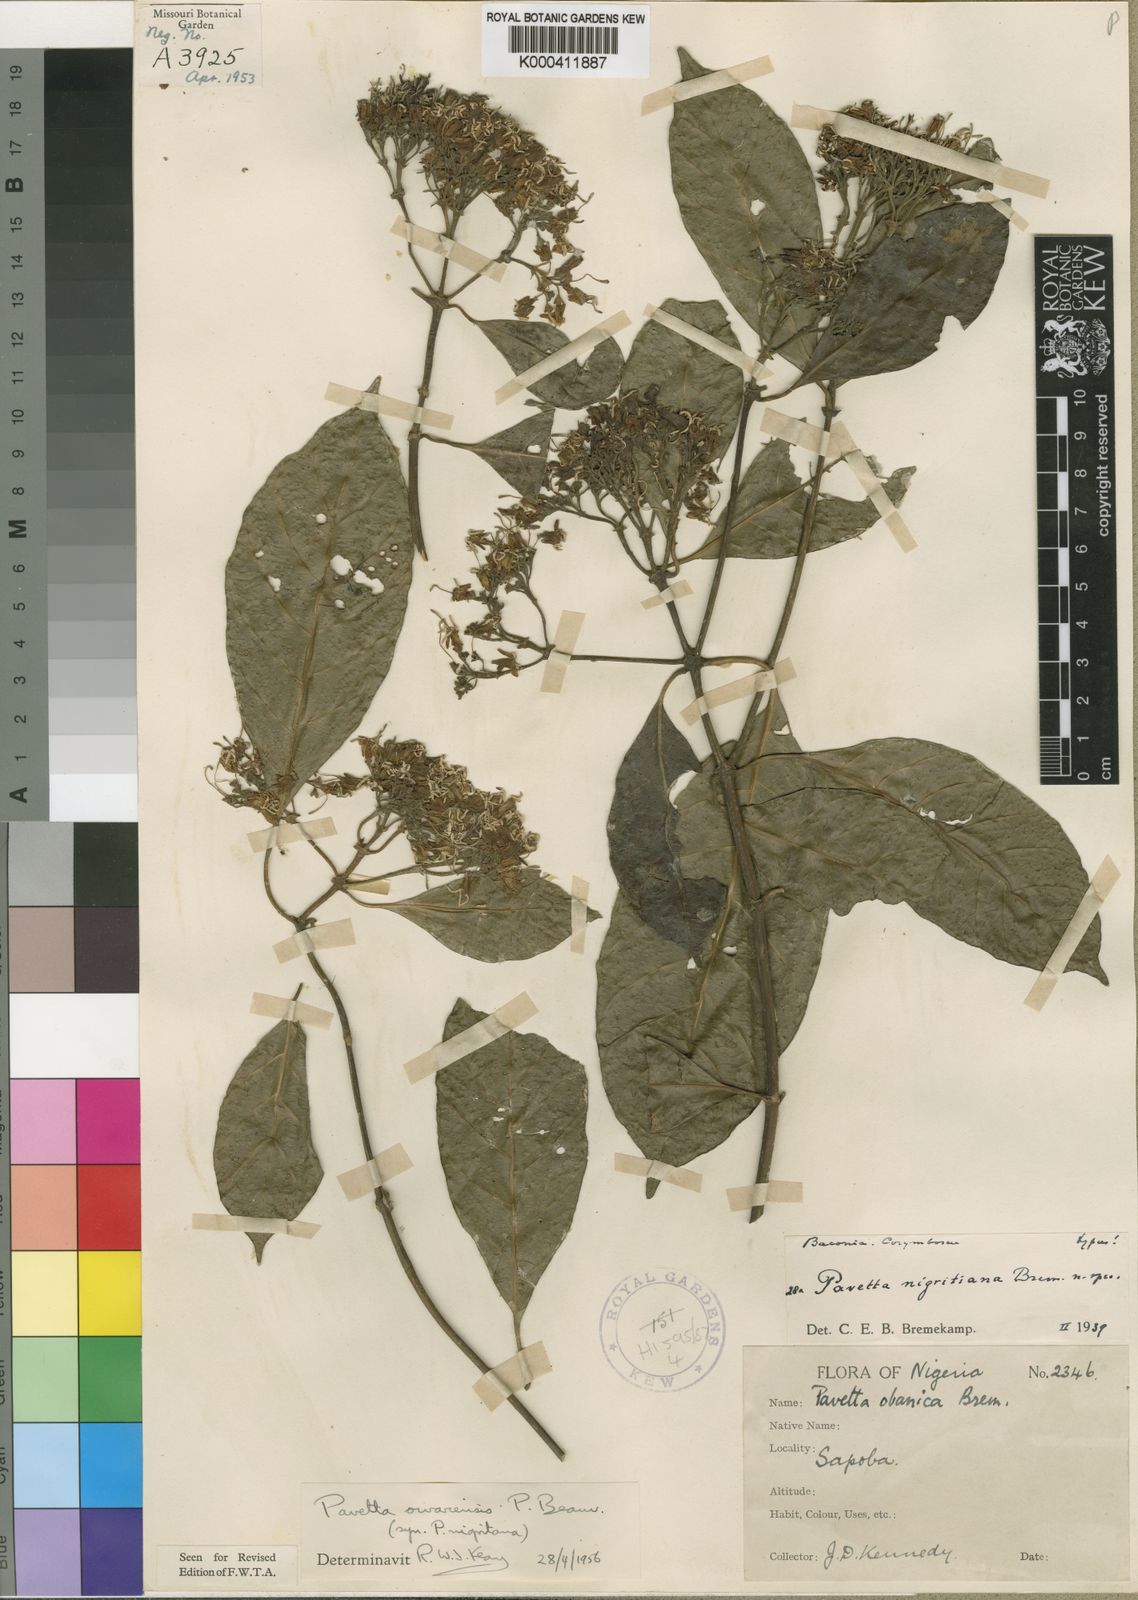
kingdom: Plantae
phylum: Tracheophyta
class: Magnoliopsida
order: Gentianales
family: Rubiaceae
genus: Pavetta
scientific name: Pavetta owariensis
